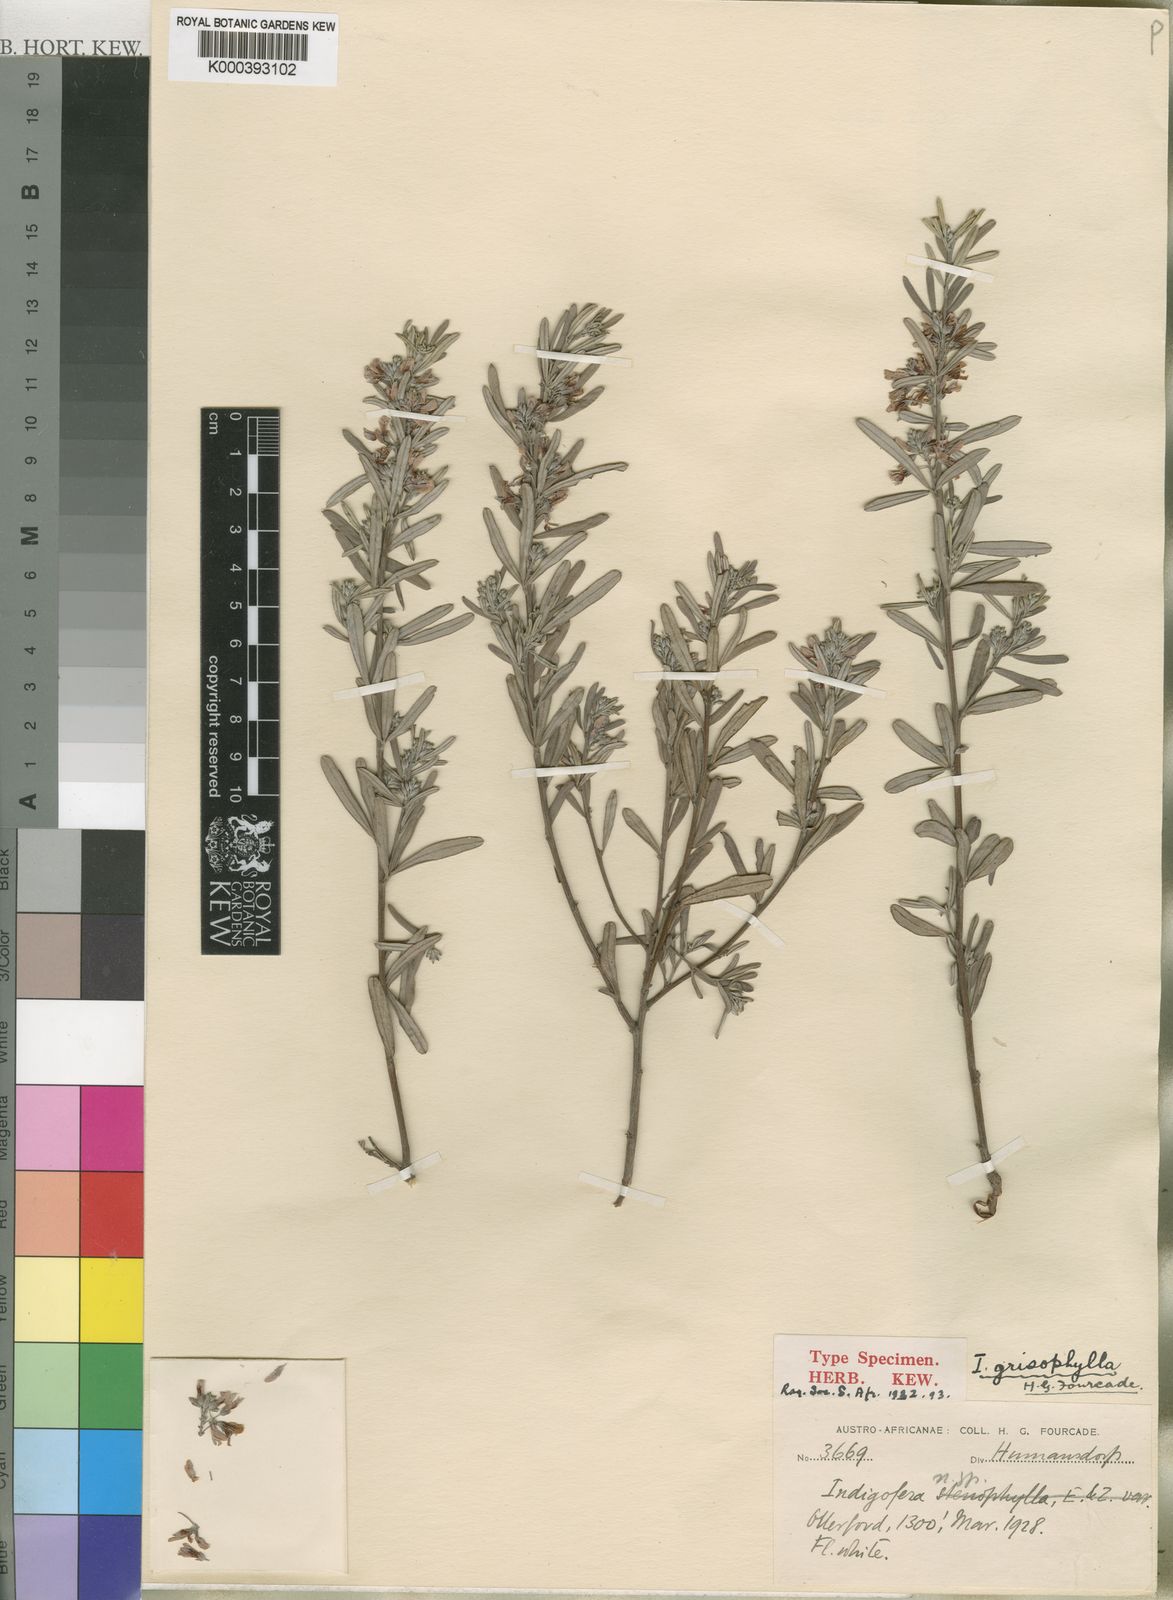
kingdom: Plantae
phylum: Tracheophyta
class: Magnoliopsida
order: Fabales
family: Fabaceae
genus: Indigofera
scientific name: Indigofera sulcata
